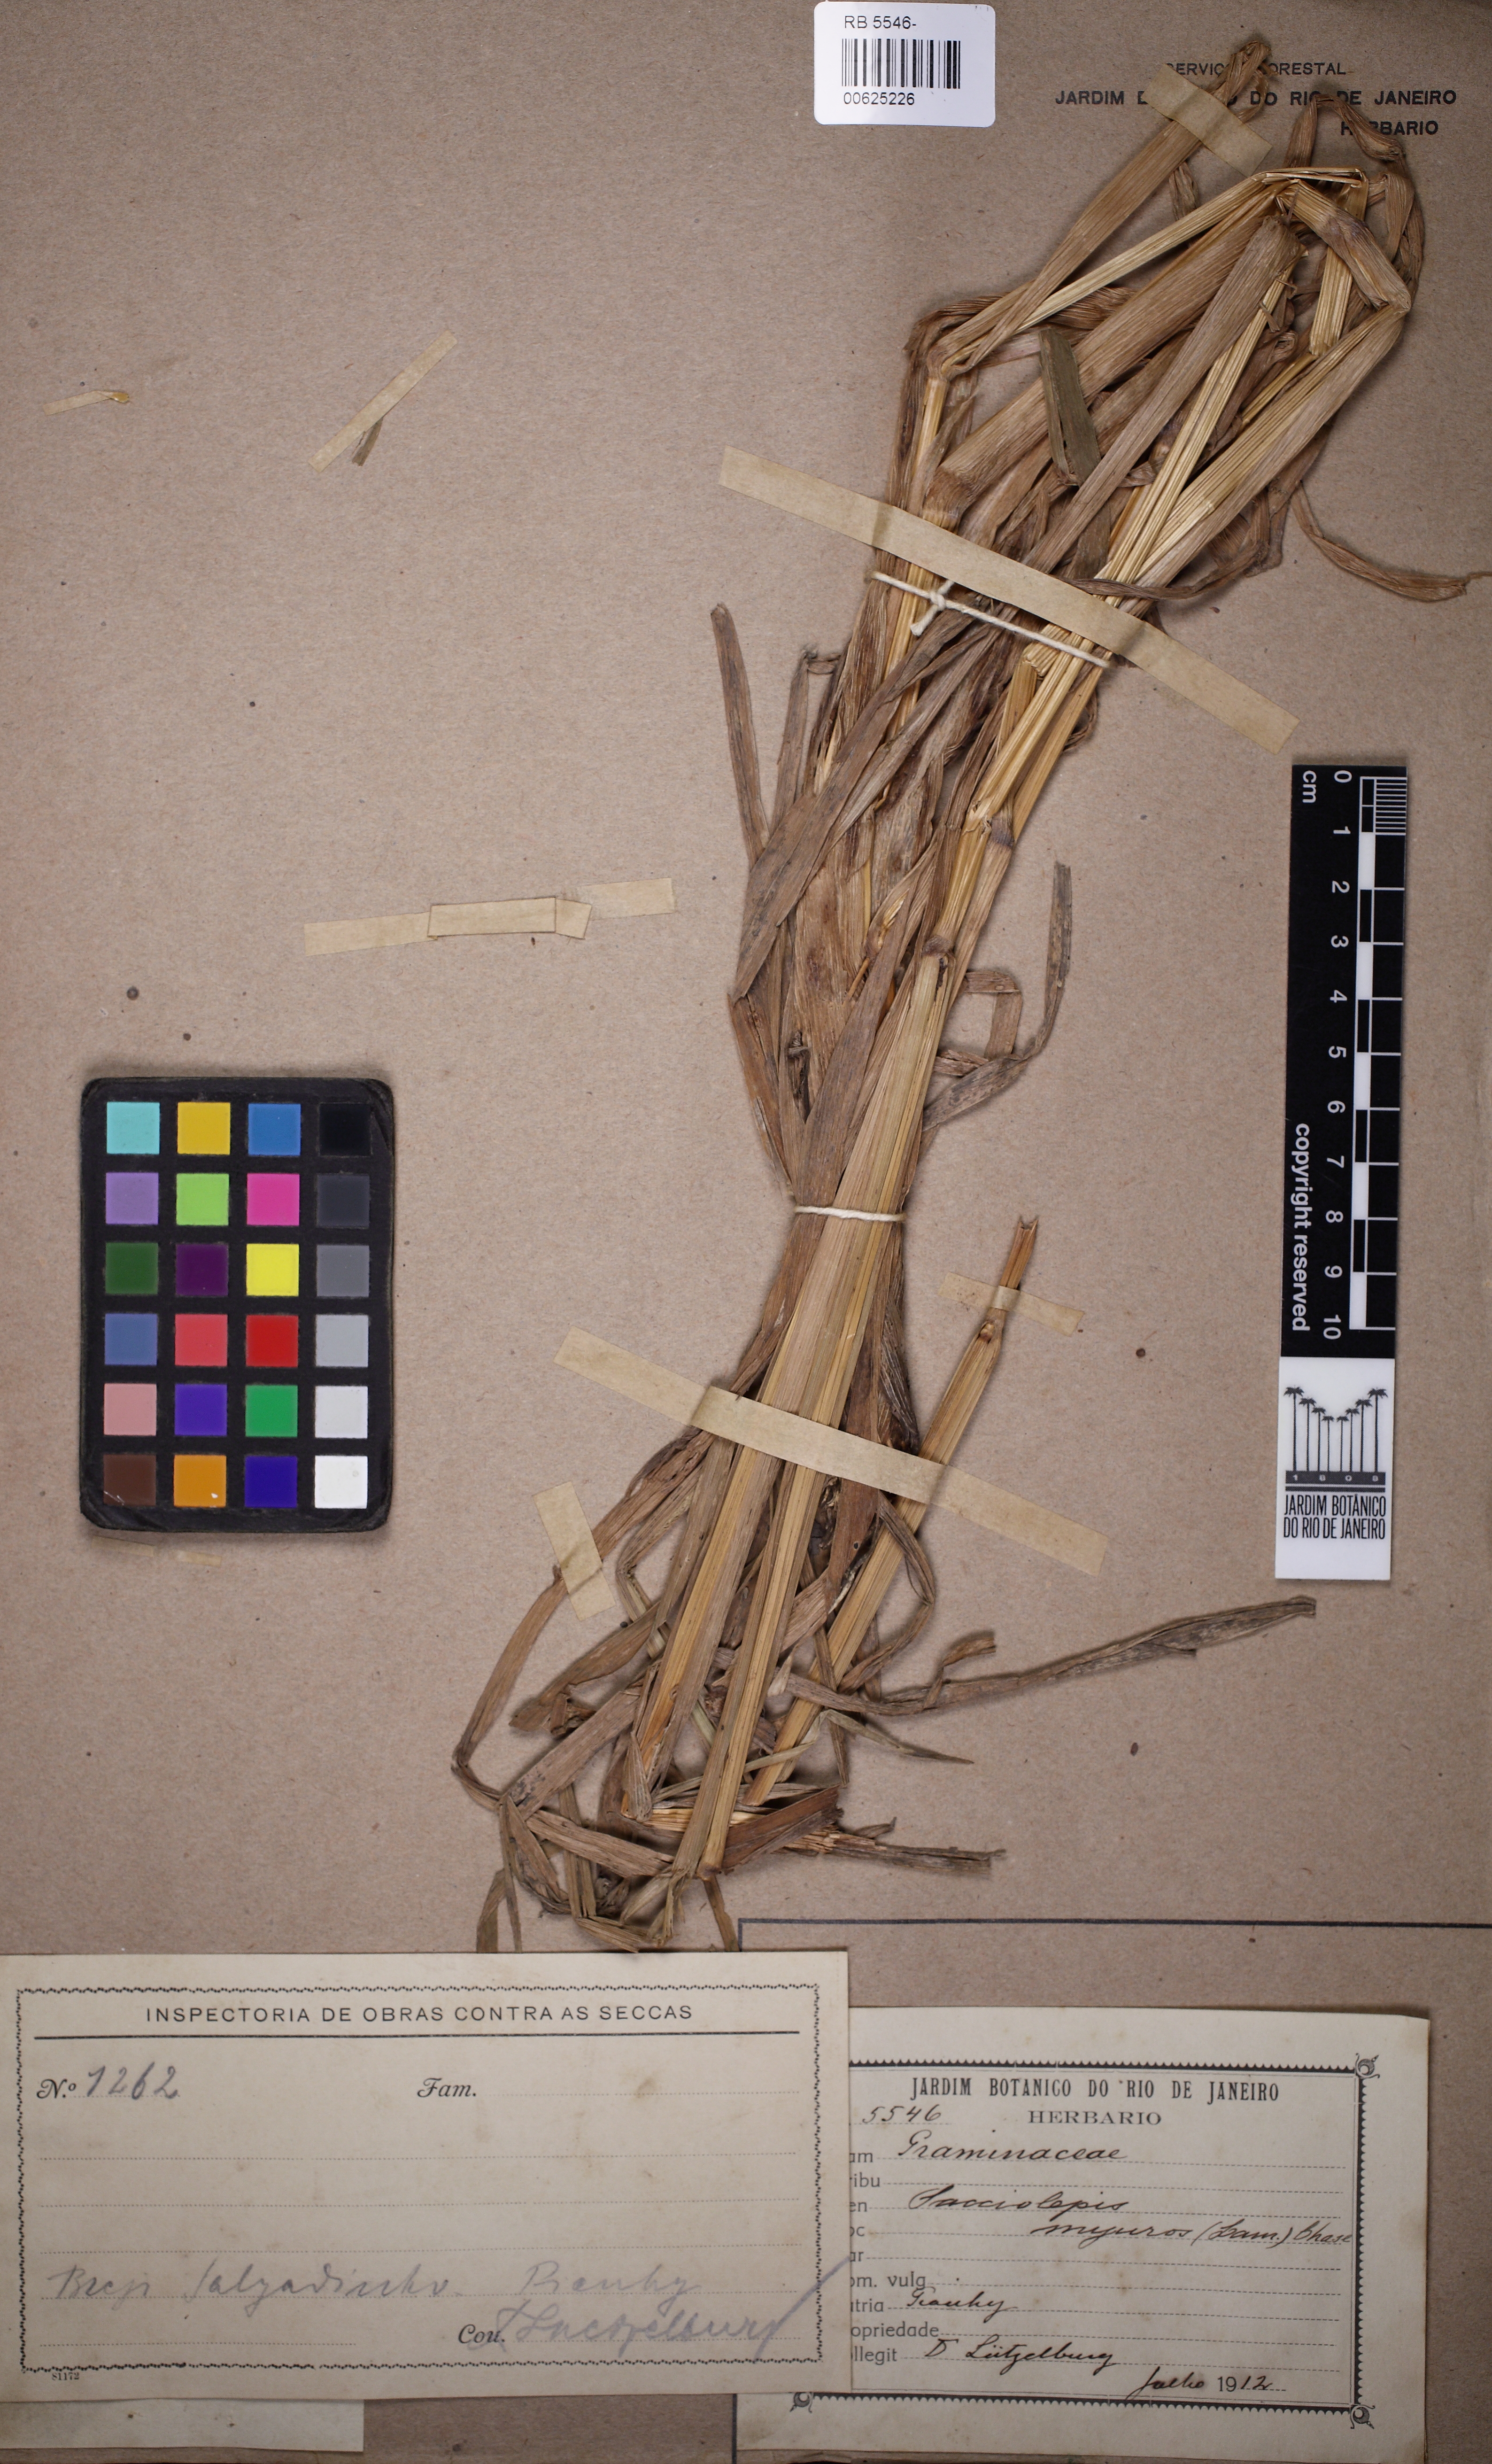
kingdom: Plantae
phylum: Tracheophyta
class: Liliopsida
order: Poales
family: Poaceae
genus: Sacciolepis
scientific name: Sacciolepis myuros
